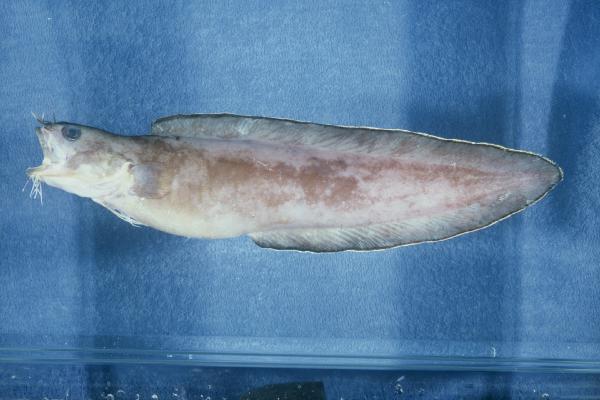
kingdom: Animalia
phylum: Chordata
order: Ophidiiformes
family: Ophidiidae
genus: Brotula
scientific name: Brotula multibarbata
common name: Goatsbeard brotula
